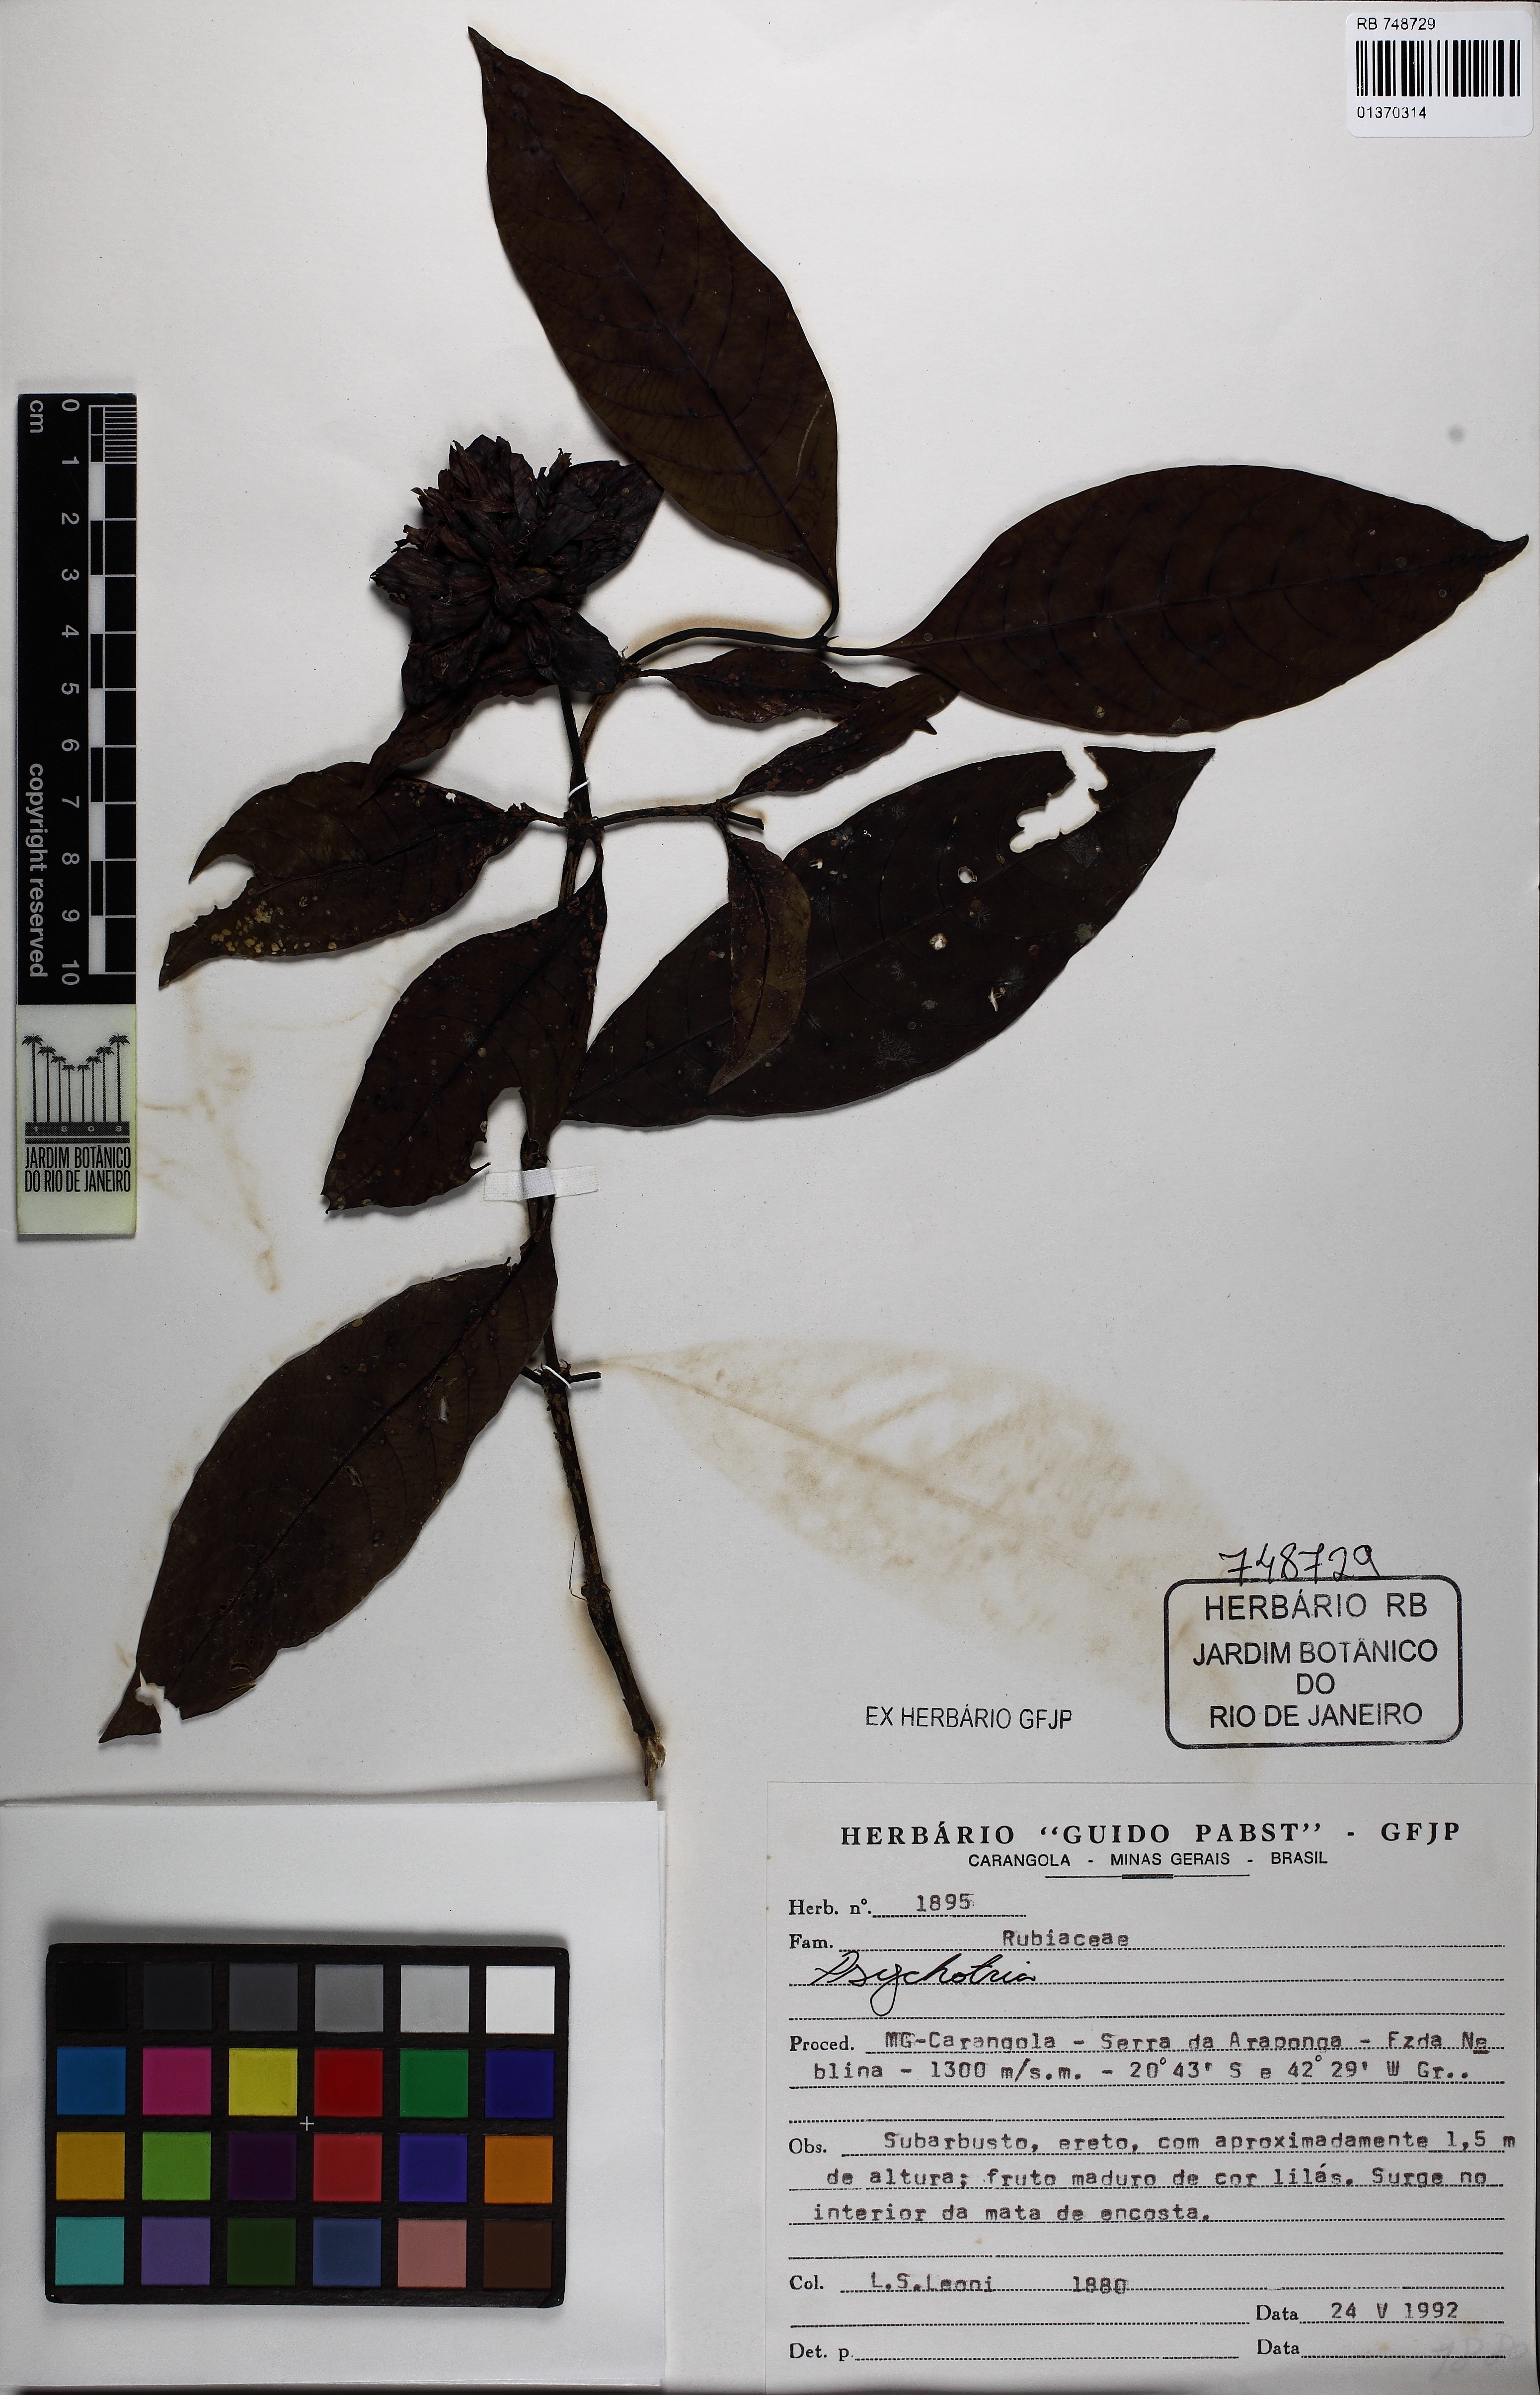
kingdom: Plantae
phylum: Tracheophyta
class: Magnoliopsida
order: Gentianales
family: Rubiaceae
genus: Psychotria
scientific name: Psychotria alto-macahensis
